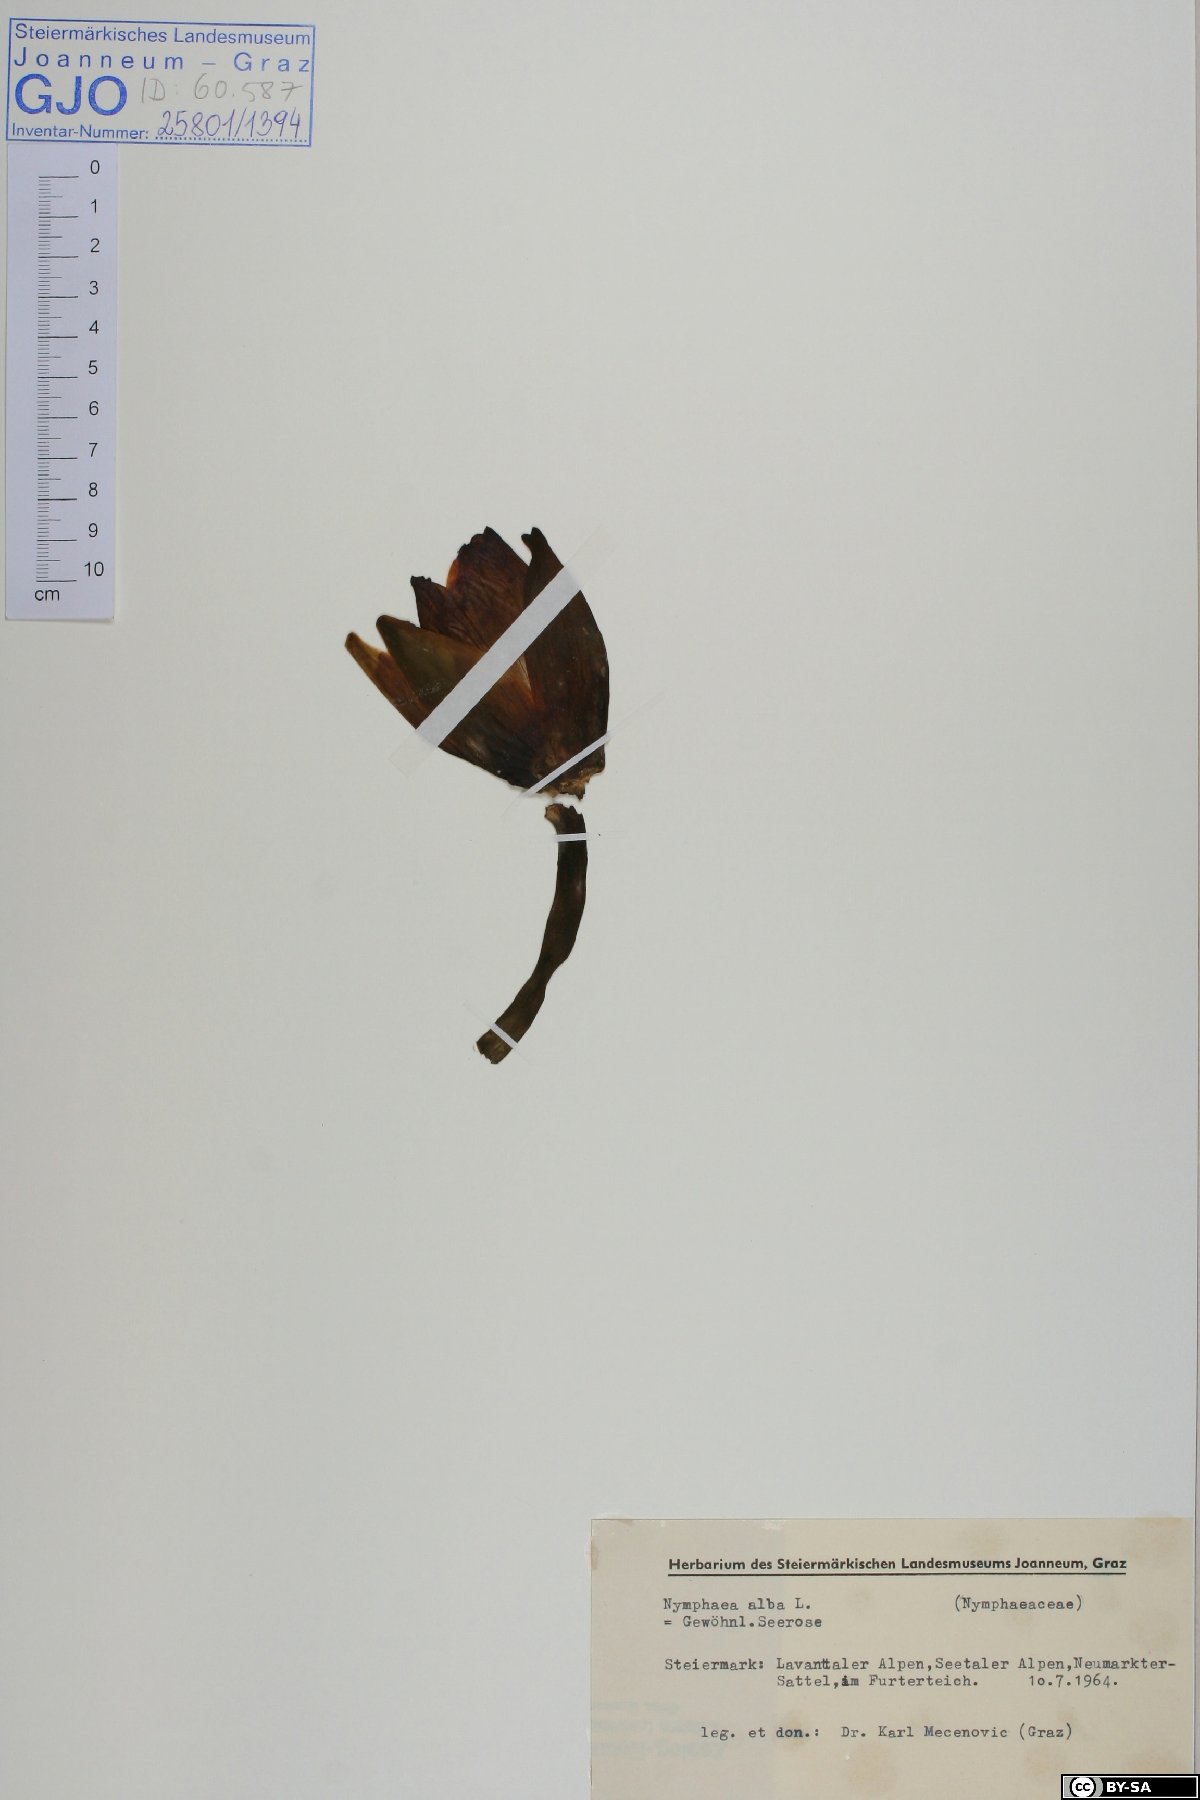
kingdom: Plantae
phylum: Tracheophyta
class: Magnoliopsida
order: Nymphaeales
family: Nymphaeaceae
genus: Nymphaea
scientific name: Nymphaea alba
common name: White water-lily
